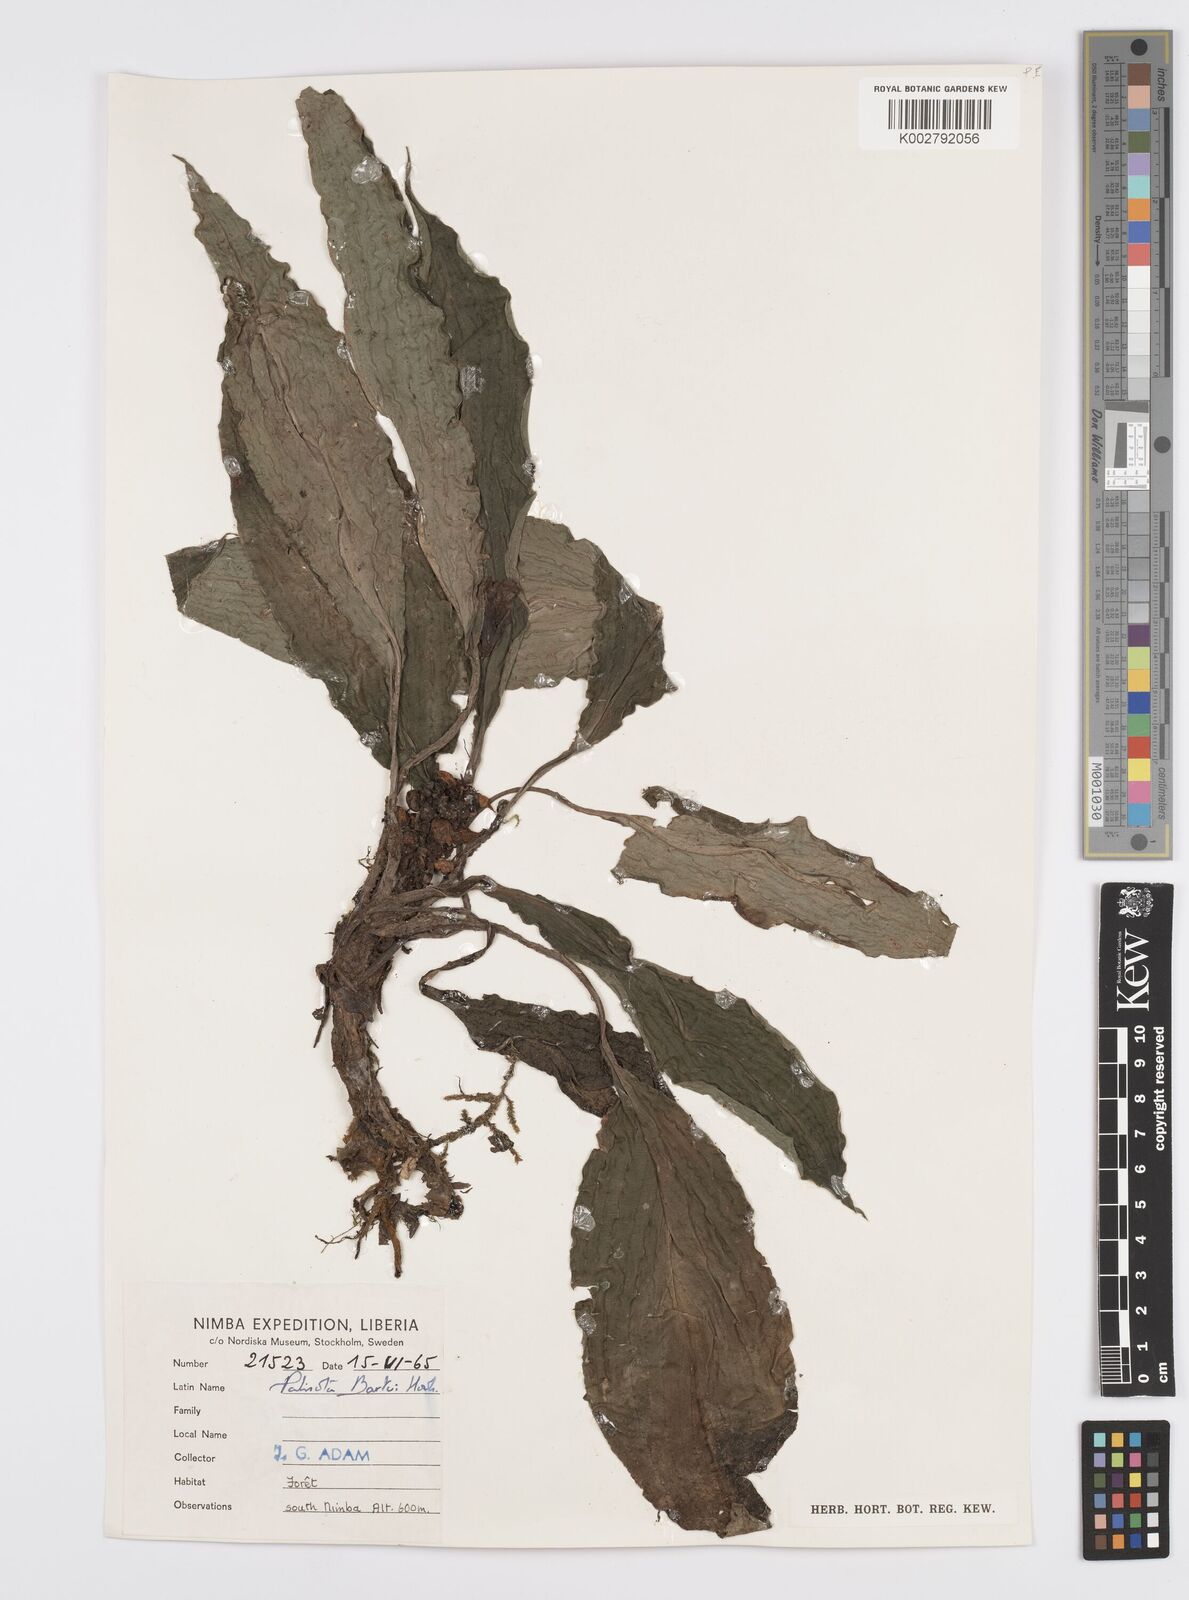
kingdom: Plantae
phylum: Tracheophyta
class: Liliopsida
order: Commelinales
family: Commelinaceae
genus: Palisota
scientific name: Palisota barteri
